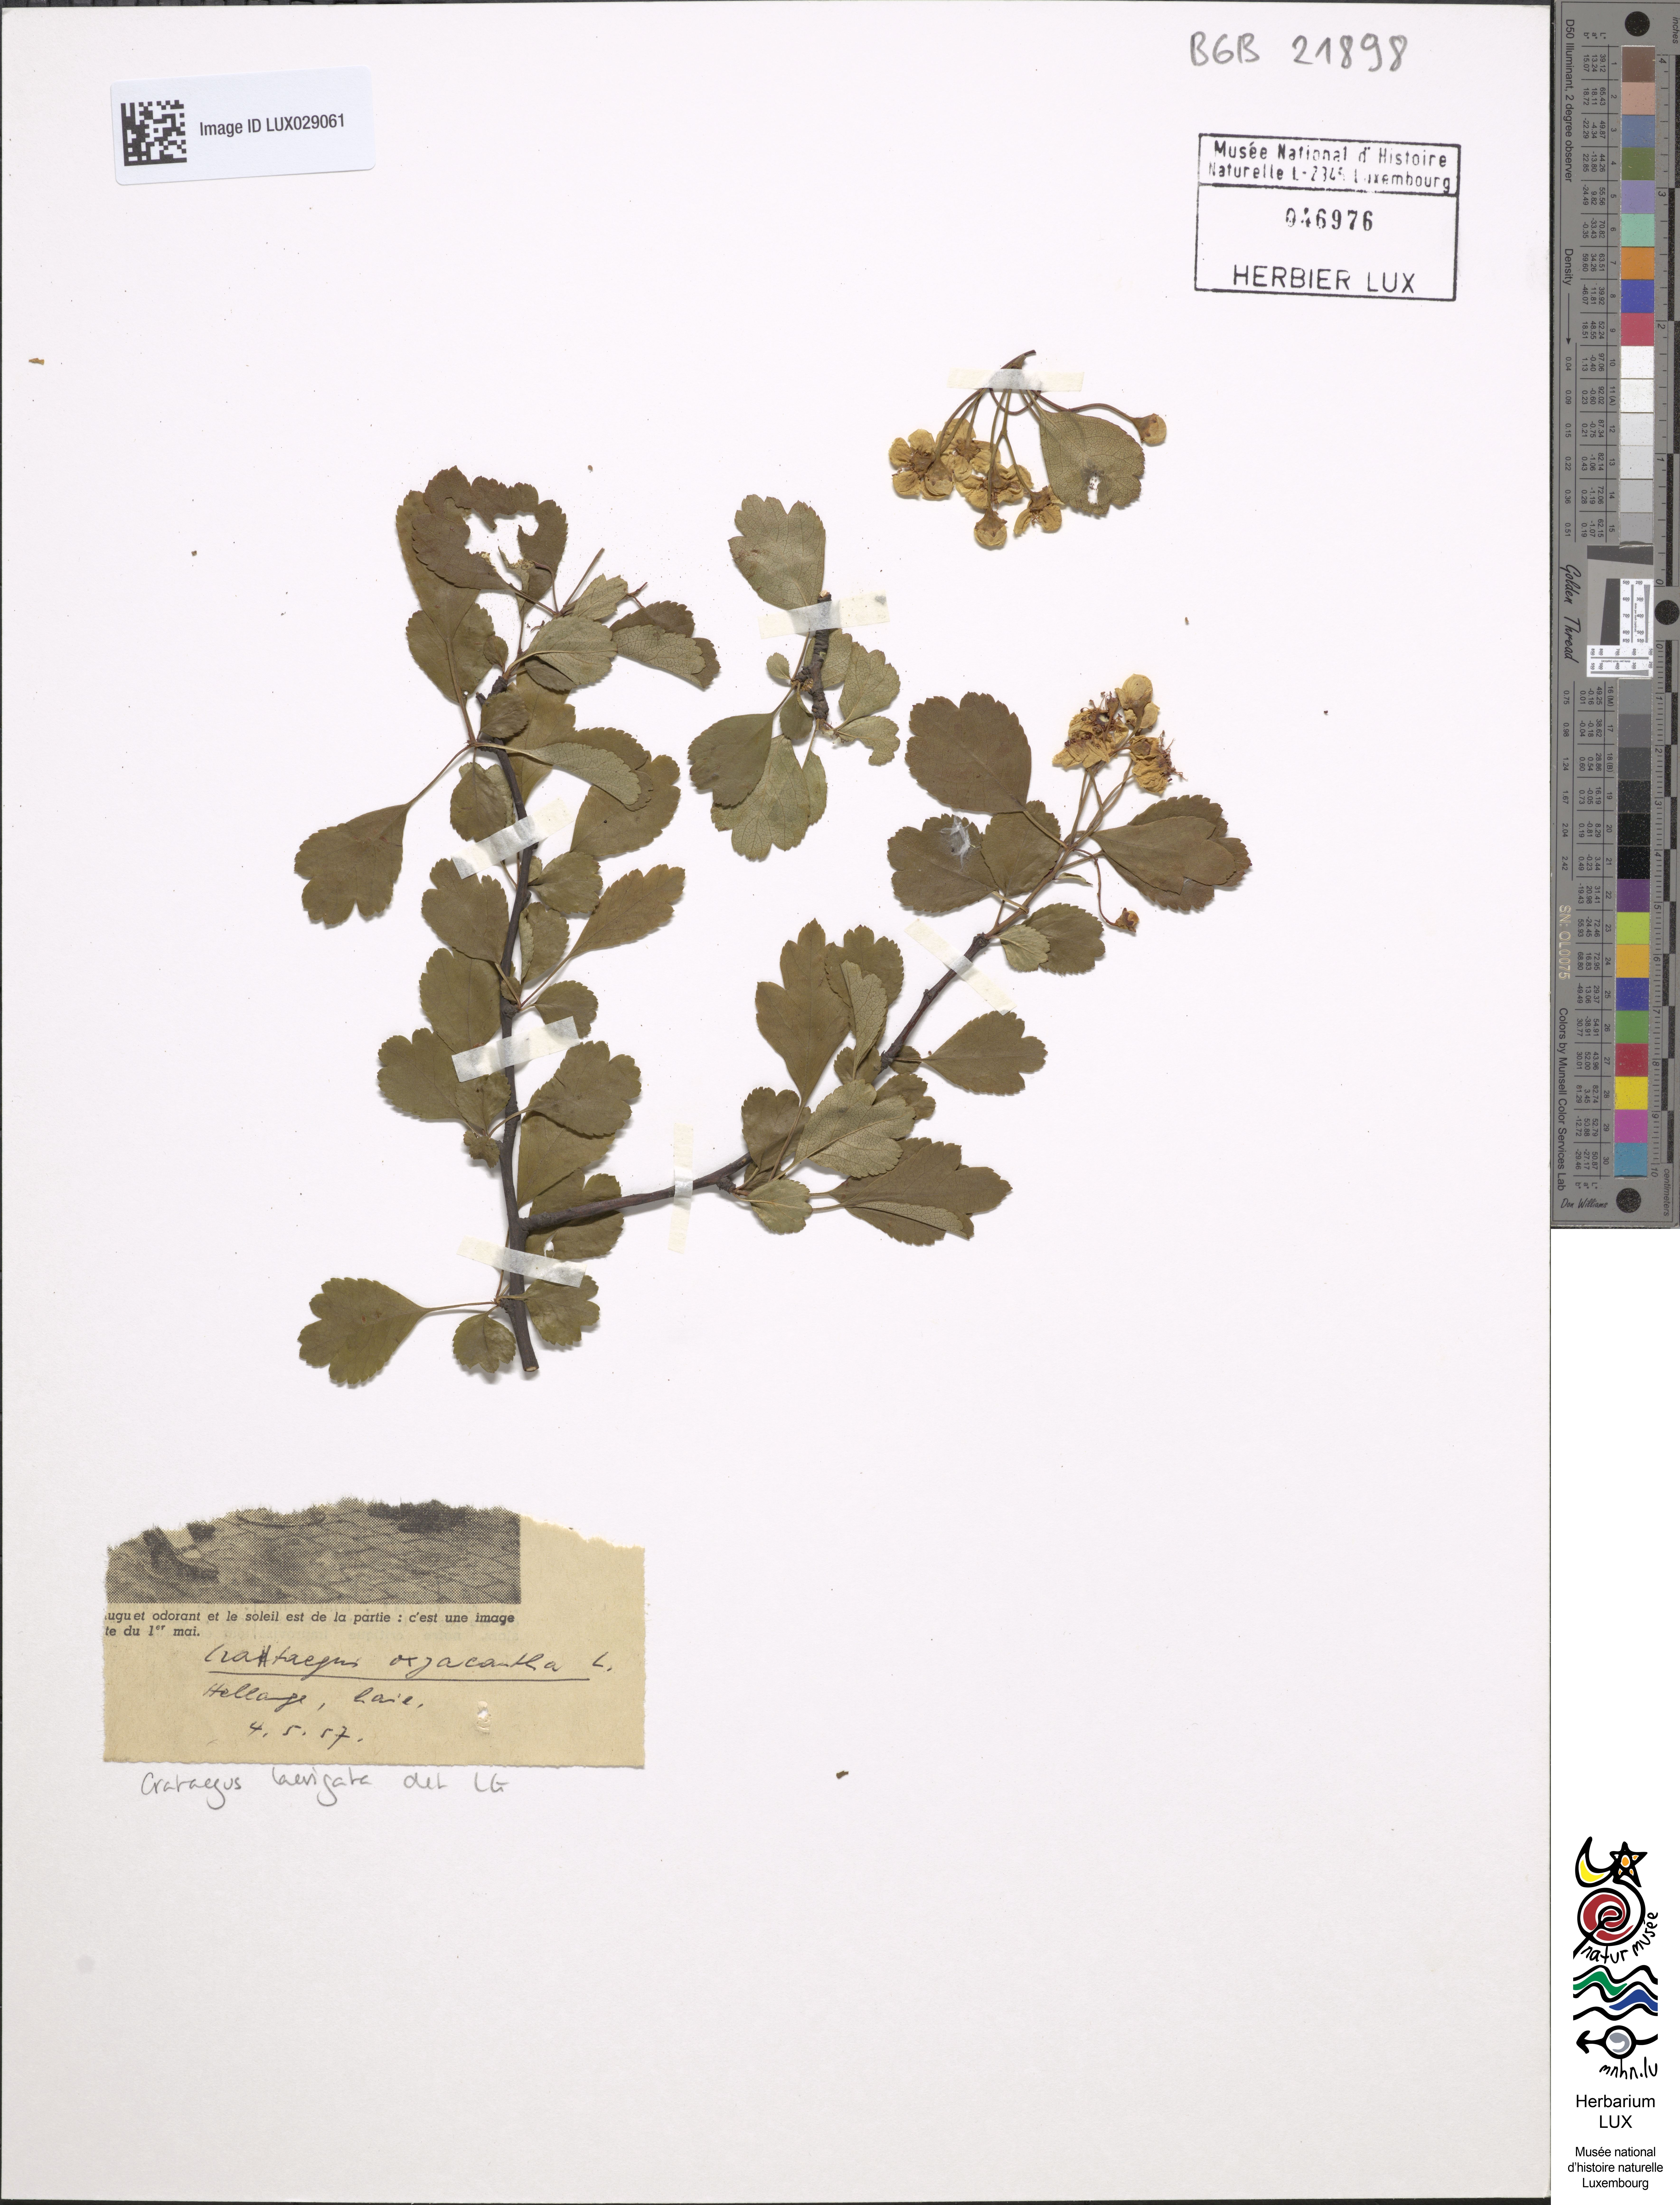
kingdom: Plantae
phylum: Tracheophyta
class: Magnoliopsida
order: Rosales
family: Rosaceae
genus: Crataegus
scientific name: Crataegus laevigata
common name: Midland hawthorn
